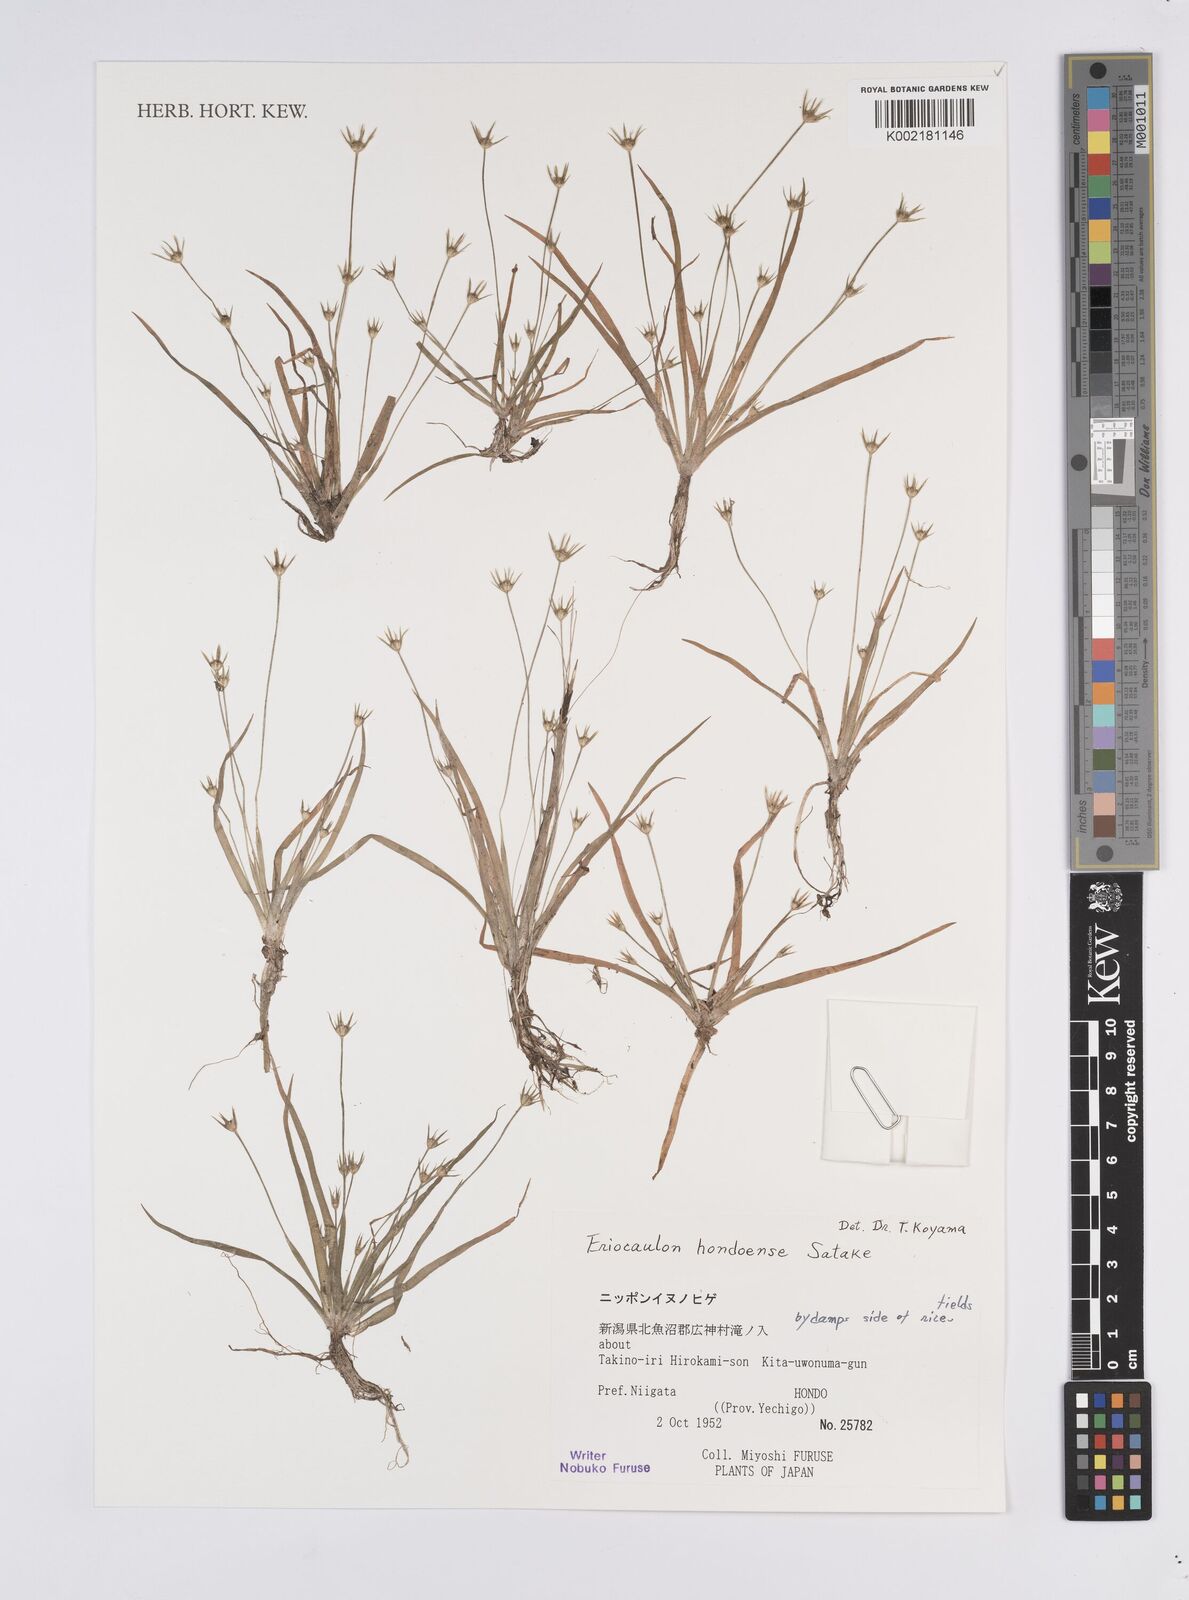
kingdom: Plantae
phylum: Tracheophyta
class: Liliopsida
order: Poales
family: Eriocaulaceae
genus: Eriocaulon
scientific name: Eriocaulon taquetii
